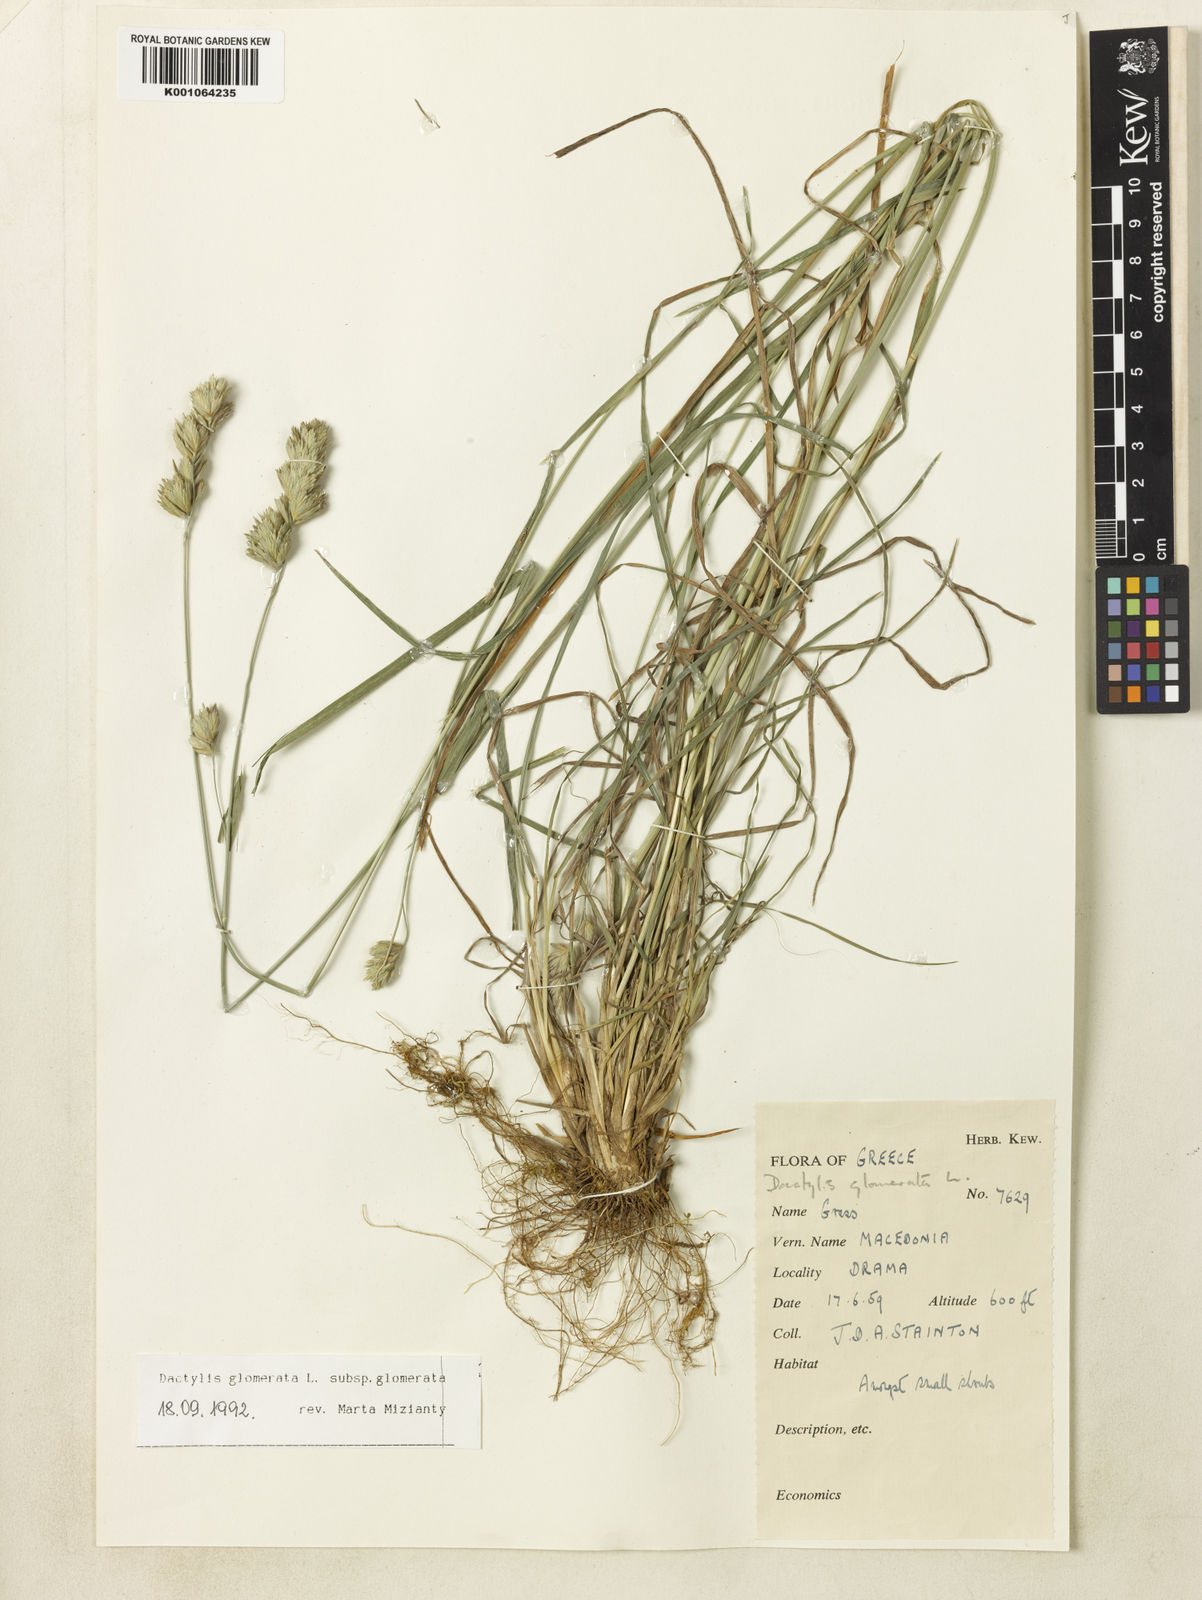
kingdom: Plantae
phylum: Tracheophyta
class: Liliopsida
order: Poales
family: Poaceae
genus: Dactylis
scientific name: Dactylis glomerata
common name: Orchardgrass
